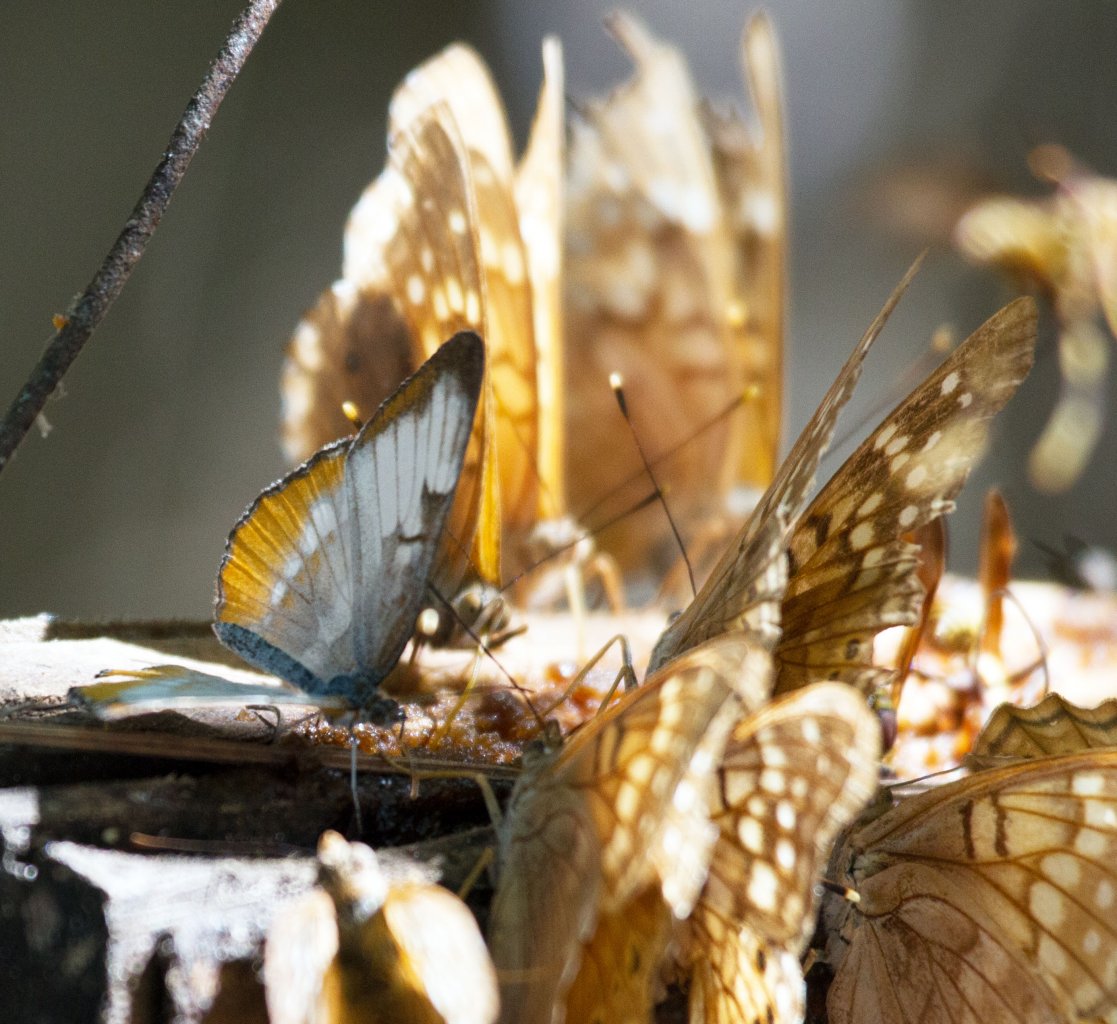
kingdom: Animalia
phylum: Arthropoda
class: Insecta
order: Lepidoptera
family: Nymphalidae
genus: Mestra
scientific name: Mestra amymone
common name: Common Mestra
